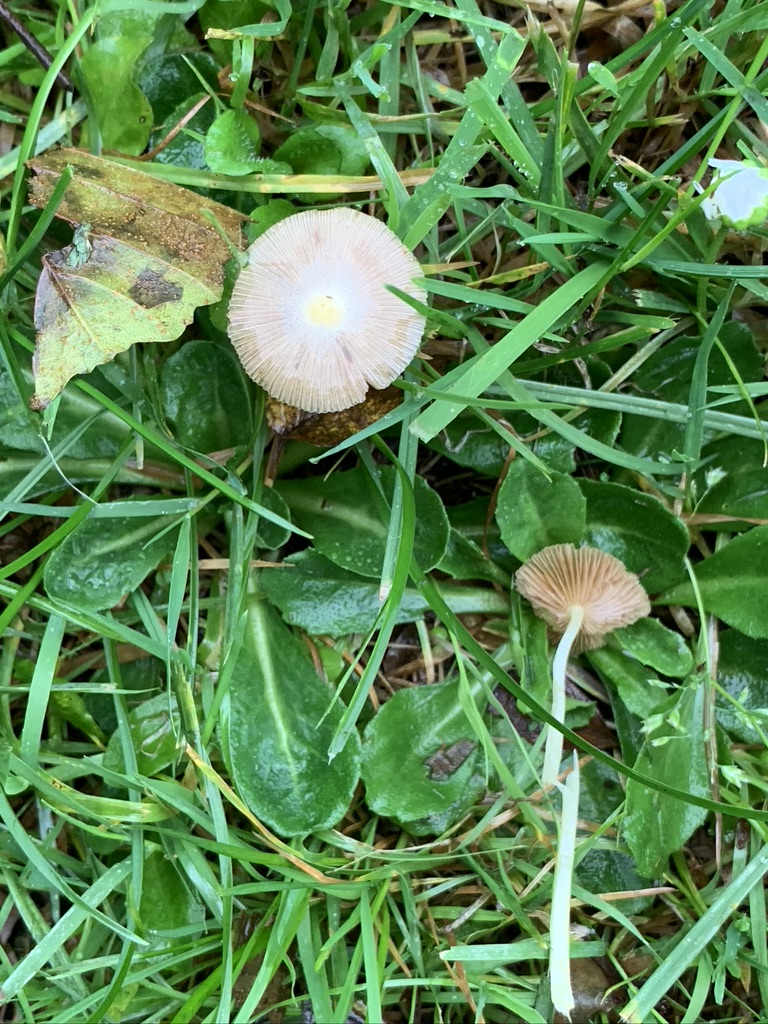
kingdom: Fungi
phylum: Basidiomycota
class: Agaricomycetes
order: Agaricales
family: Bolbitiaceae
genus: Bolbitius
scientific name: Bolbitius titubans
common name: almindelig gulhat
